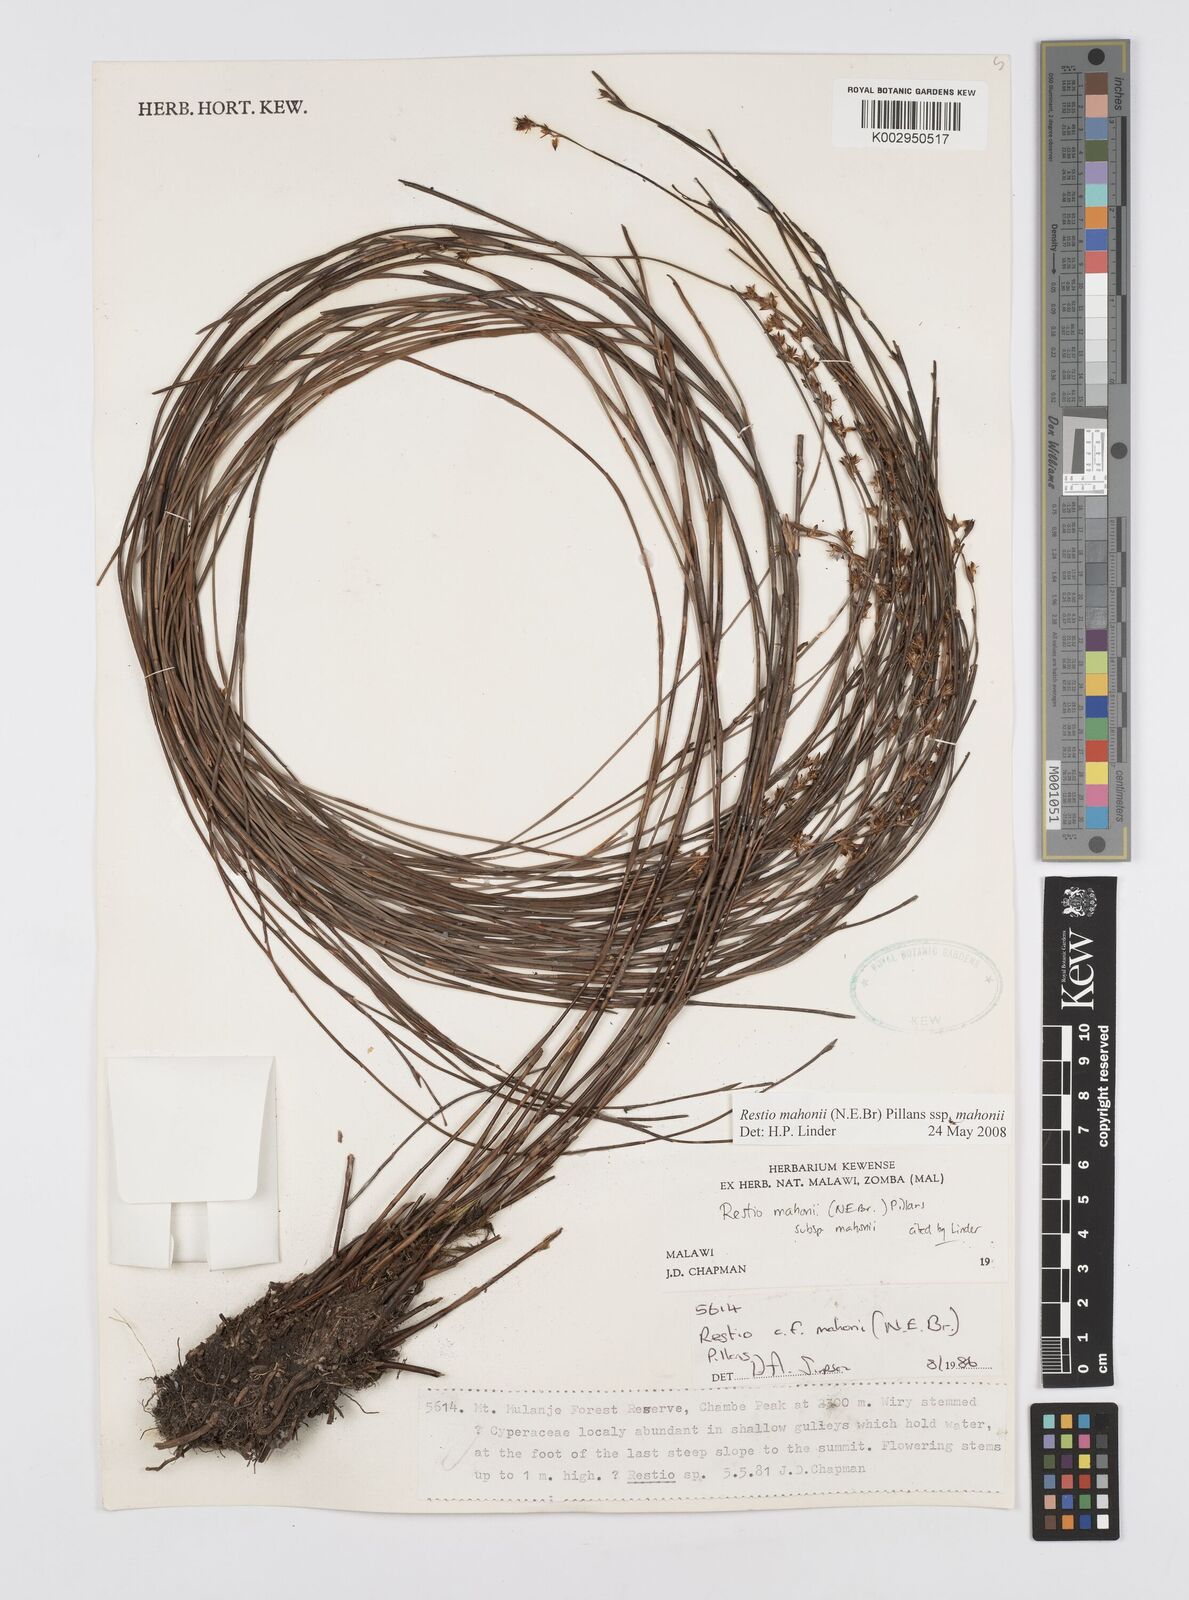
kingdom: Plantae
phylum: Tracheophyta
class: Liliopsida
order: Poales
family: Restionaceae
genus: Platycaulos
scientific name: Platycaulos mahonii
